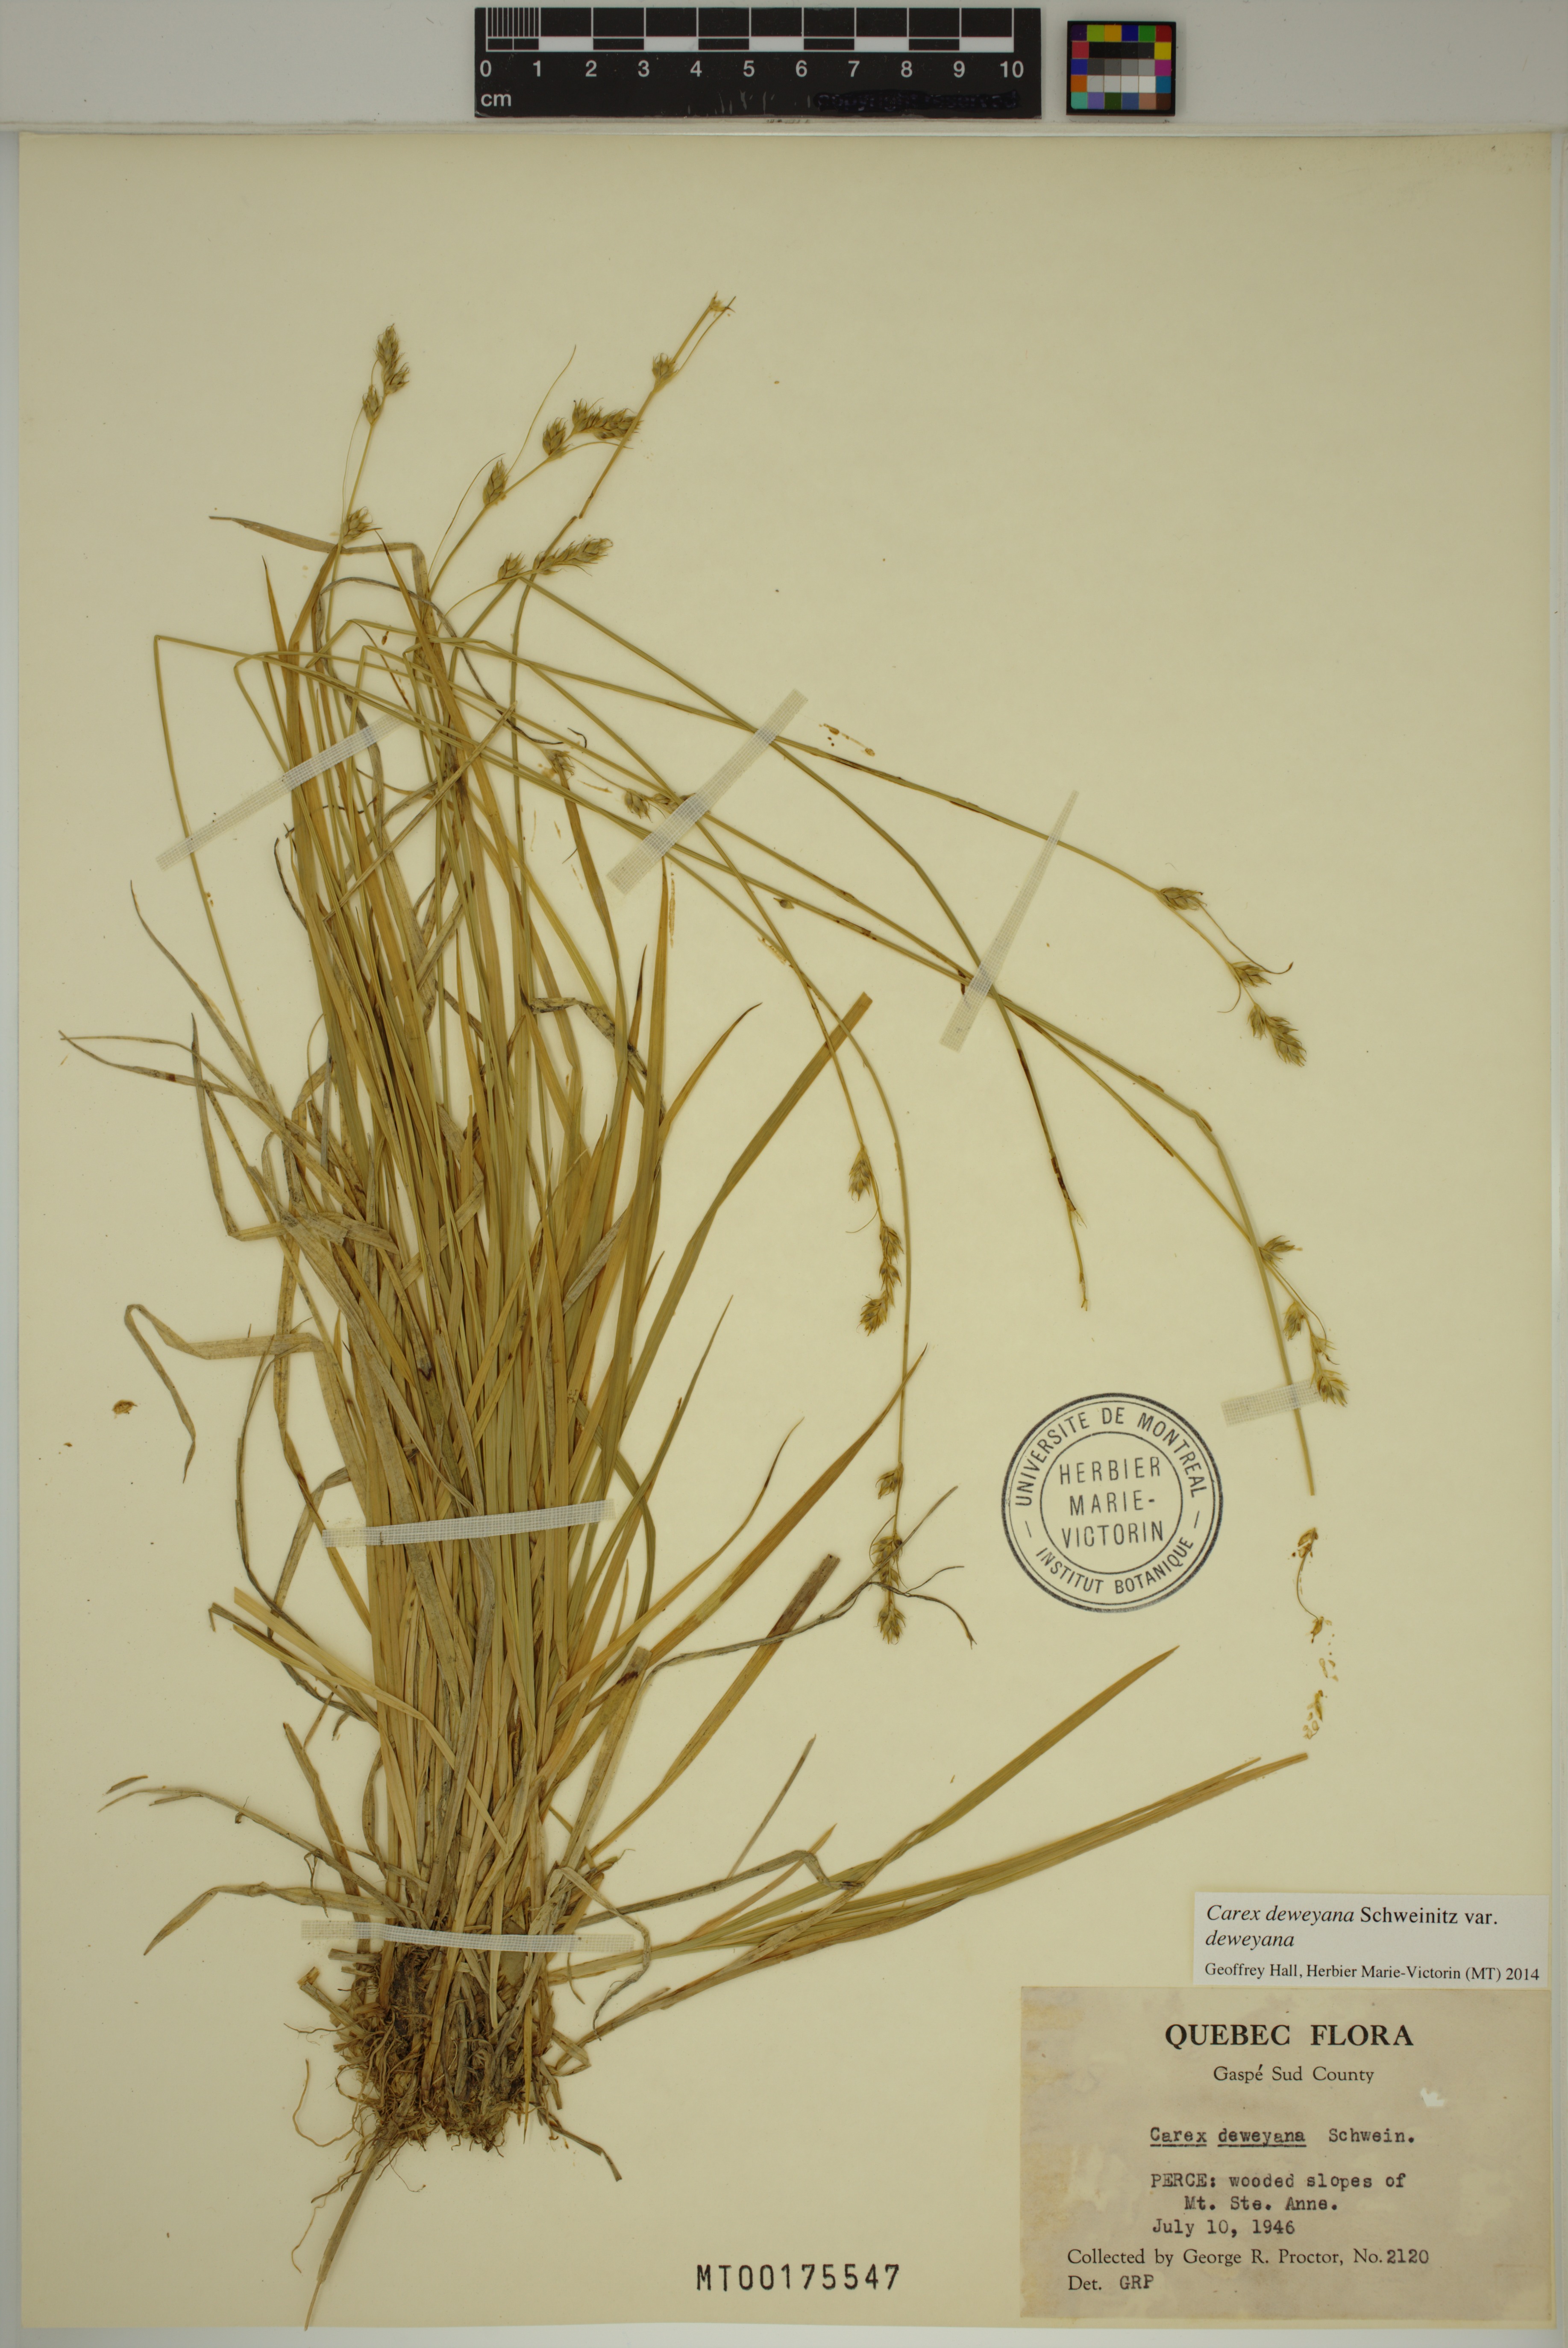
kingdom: Plantae
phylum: Tracheophyta
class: Liliopsida
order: Poales
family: Cyperaceae
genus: Carex
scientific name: Carex deweyana
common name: Dewey's sedge
